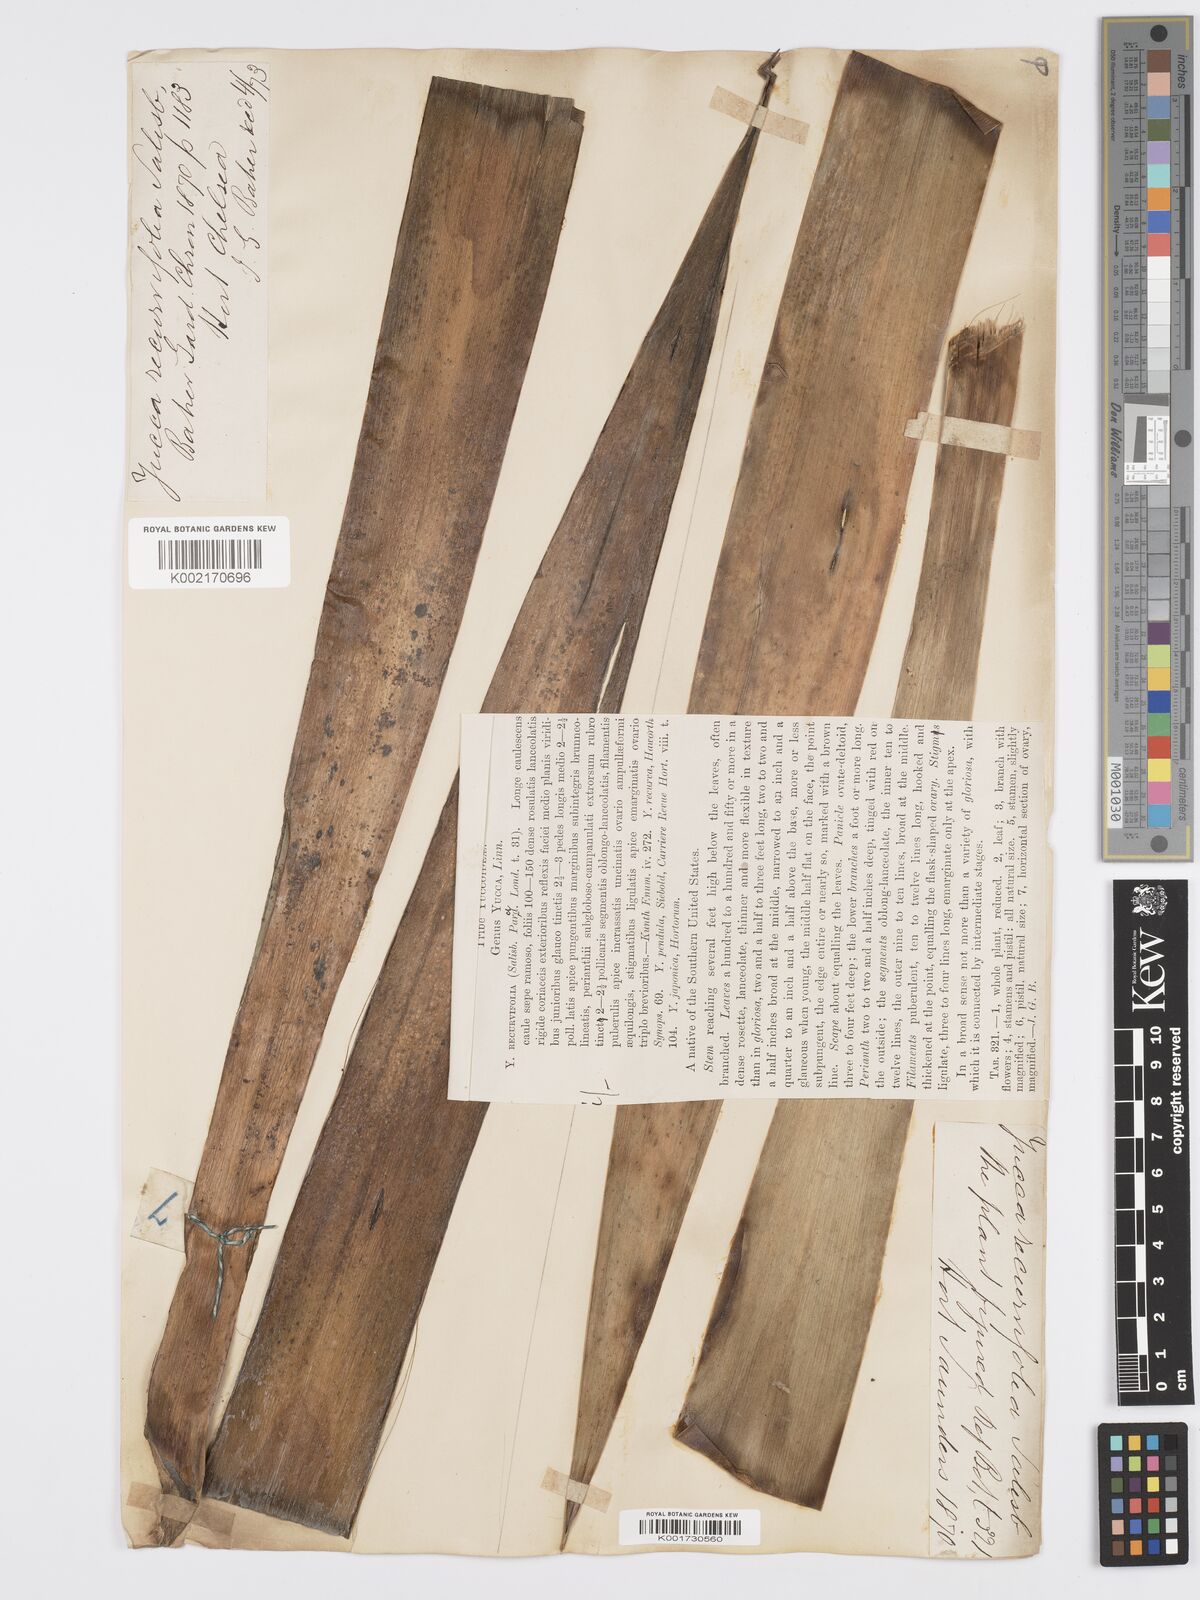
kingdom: Plantae
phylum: Tracheophyta
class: Liliopsida
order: Asparagales
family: Asparagaceae
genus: Yucca
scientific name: Yucca gloriosa
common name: Spanish-dagger
